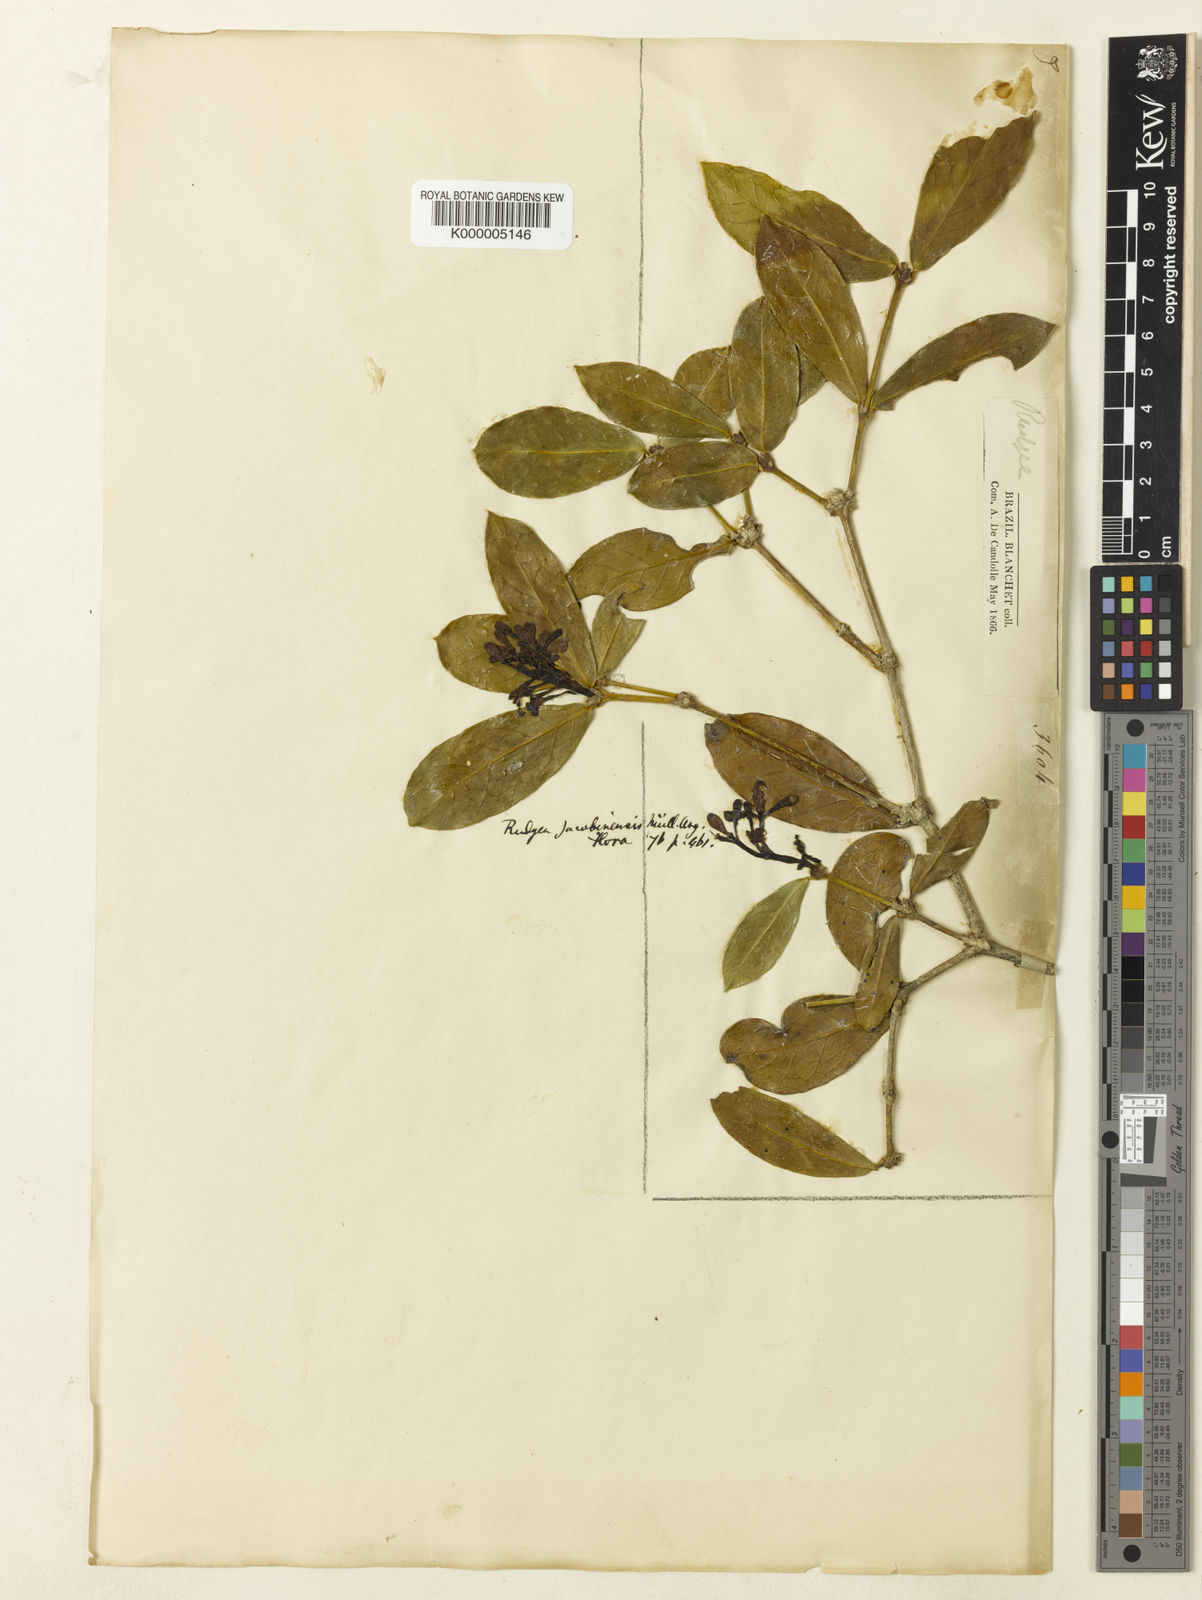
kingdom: Plantae
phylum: Tracheophyta
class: Magnoliopsida
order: Gentianales
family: Rubiaceae
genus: Rudgea
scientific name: Rudgea
